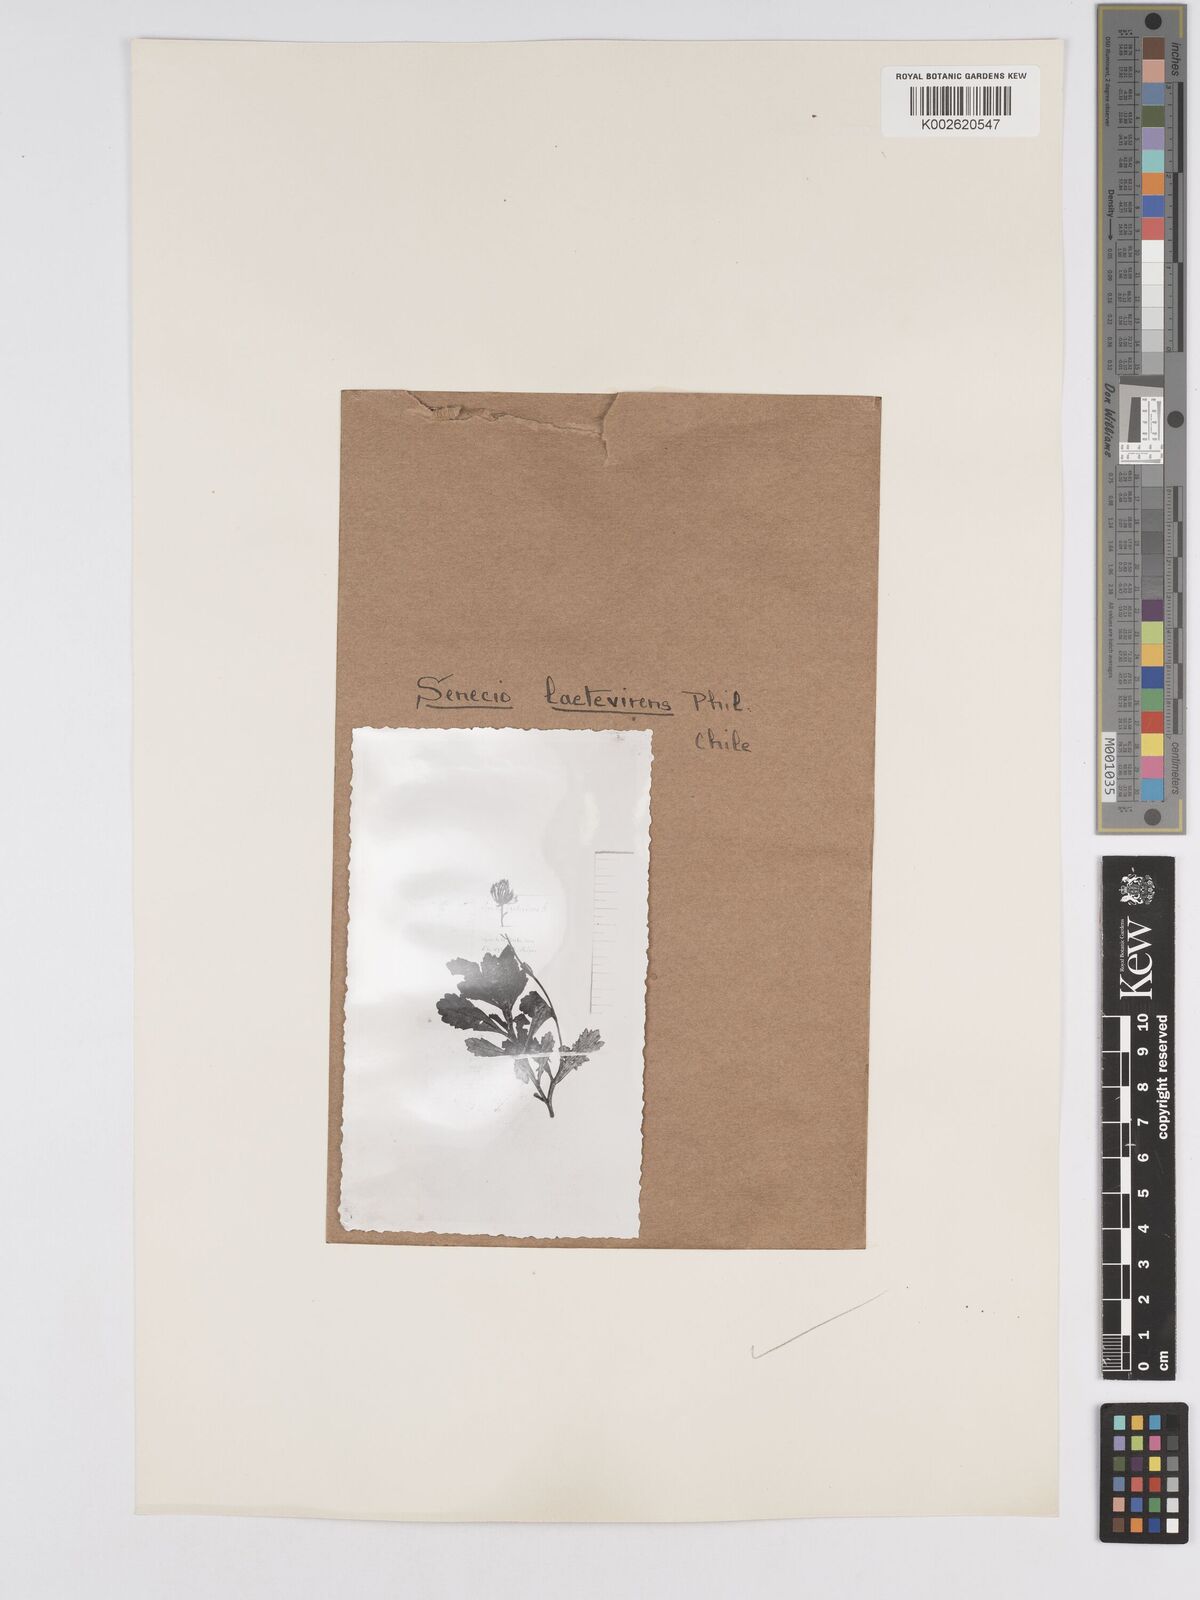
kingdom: Plantae
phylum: Tracheophyta
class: Magnoliopsida
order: Asterales
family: Asteraceae
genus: Senecio
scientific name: Senecio laetevirens
